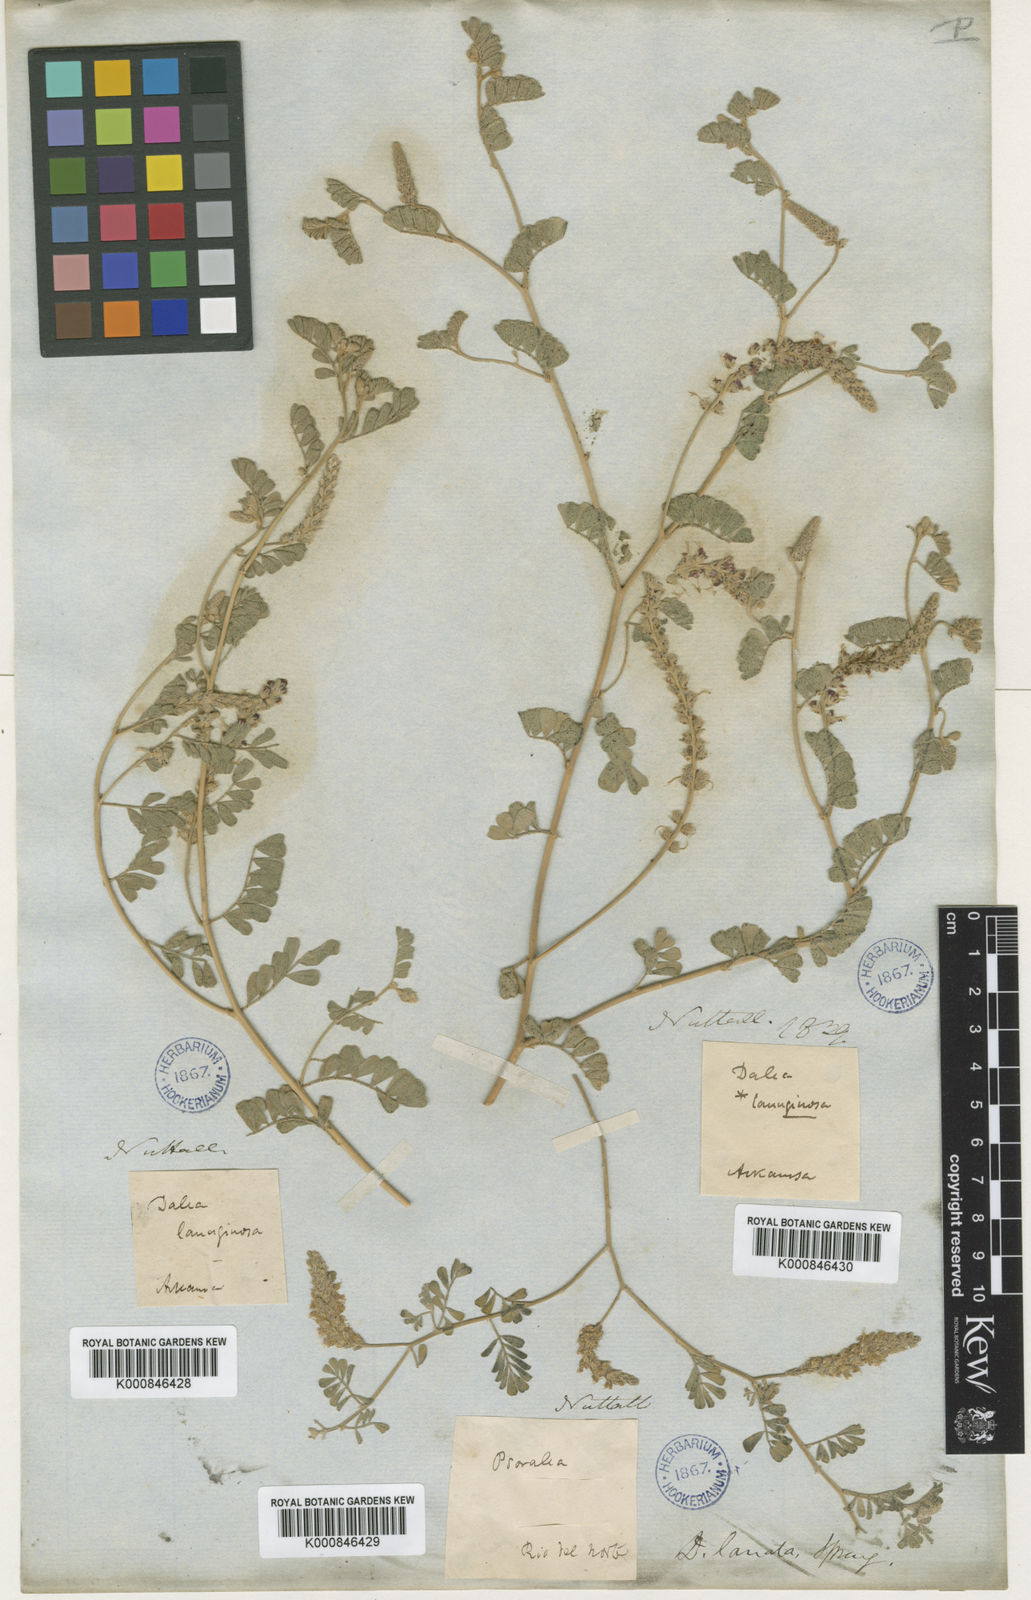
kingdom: Plantae
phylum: Tracheophyta
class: Magnoliopsida
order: Fabales
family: Fabaceae
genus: Dalea
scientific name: Dalea lanata
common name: Woolly dalea
